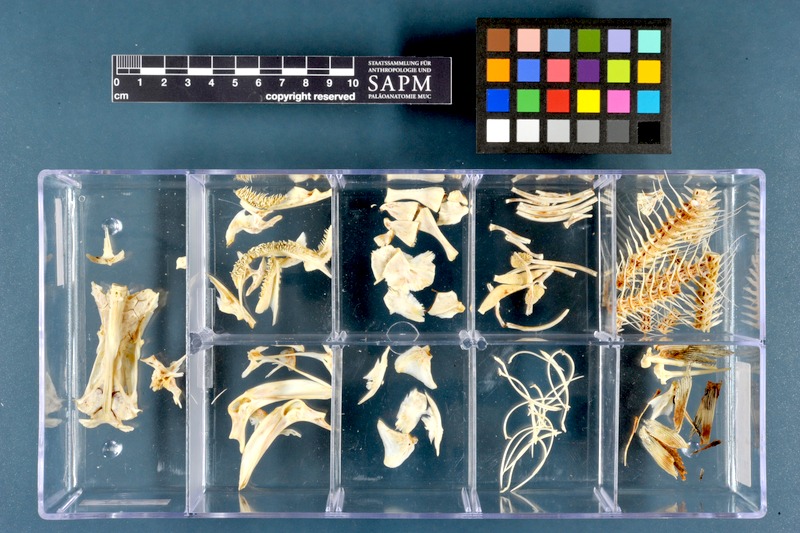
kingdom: Animalia
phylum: Chordata
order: Siluriformes
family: Siluridae
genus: Silurus
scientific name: Silurus triostegus
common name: Mesopotamian catfish
